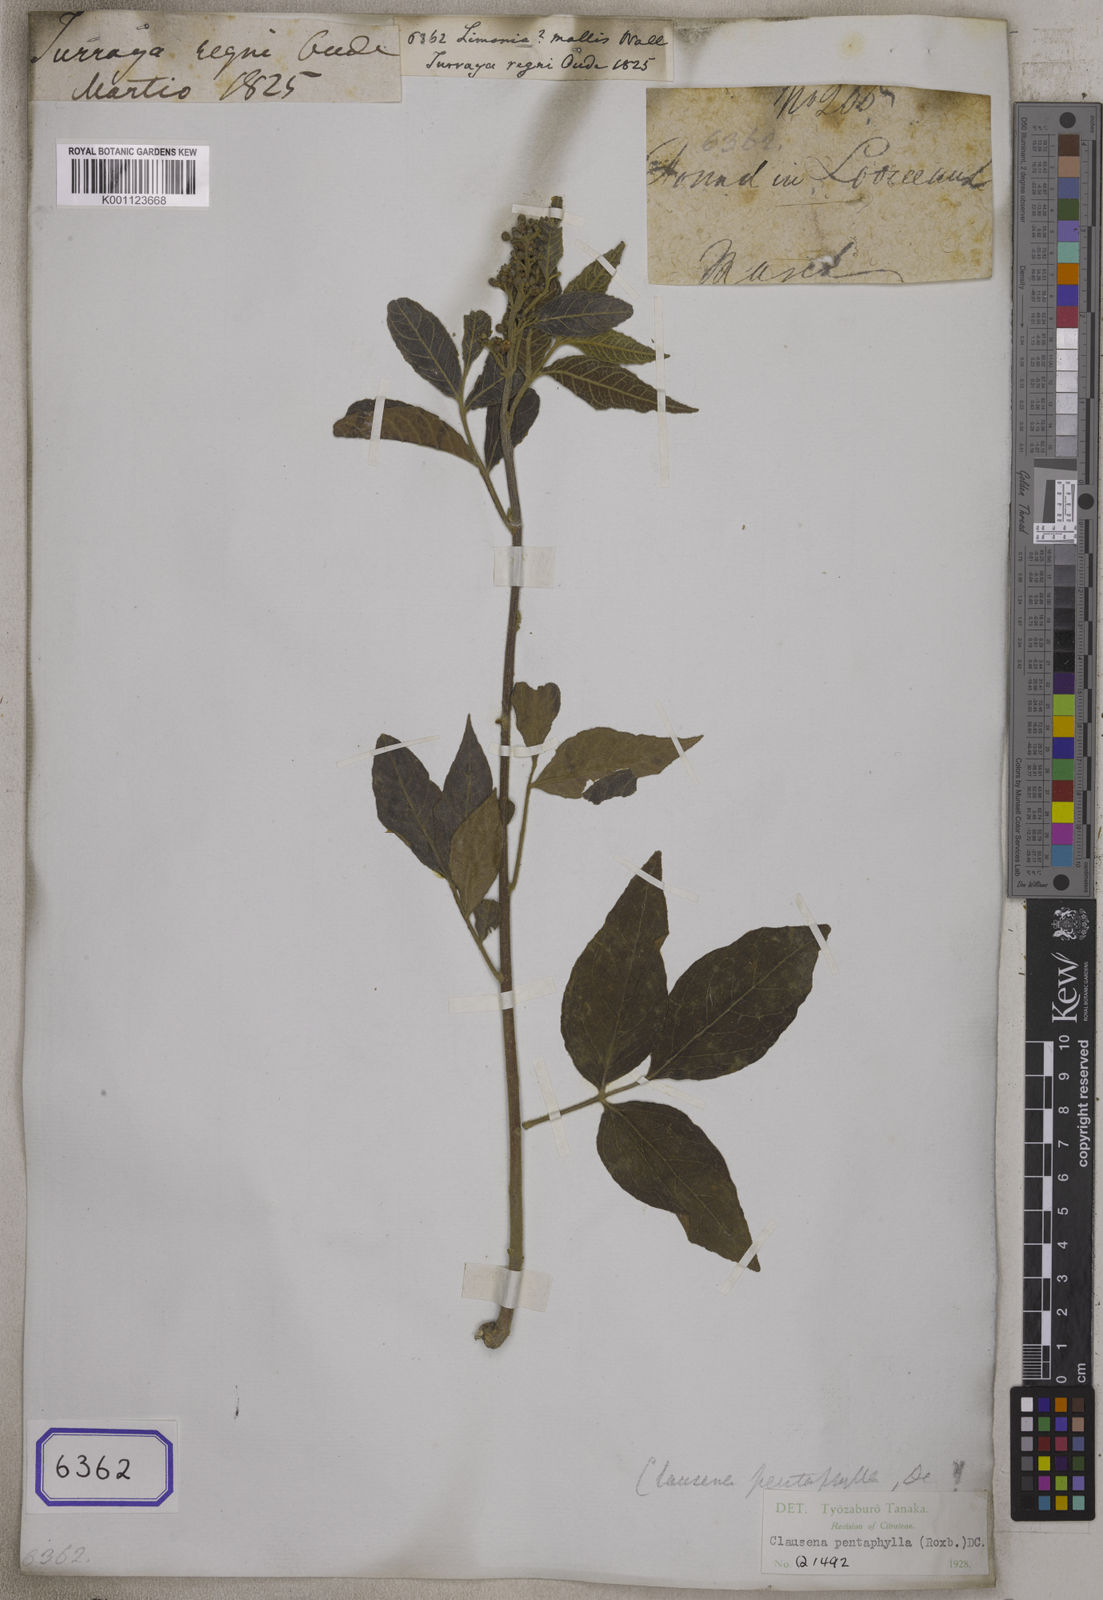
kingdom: Plantae
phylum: Tracheophyta
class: Magnoliopsida
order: Sapindales
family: Rutaceae
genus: Clausena
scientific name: Clausena luxurians
